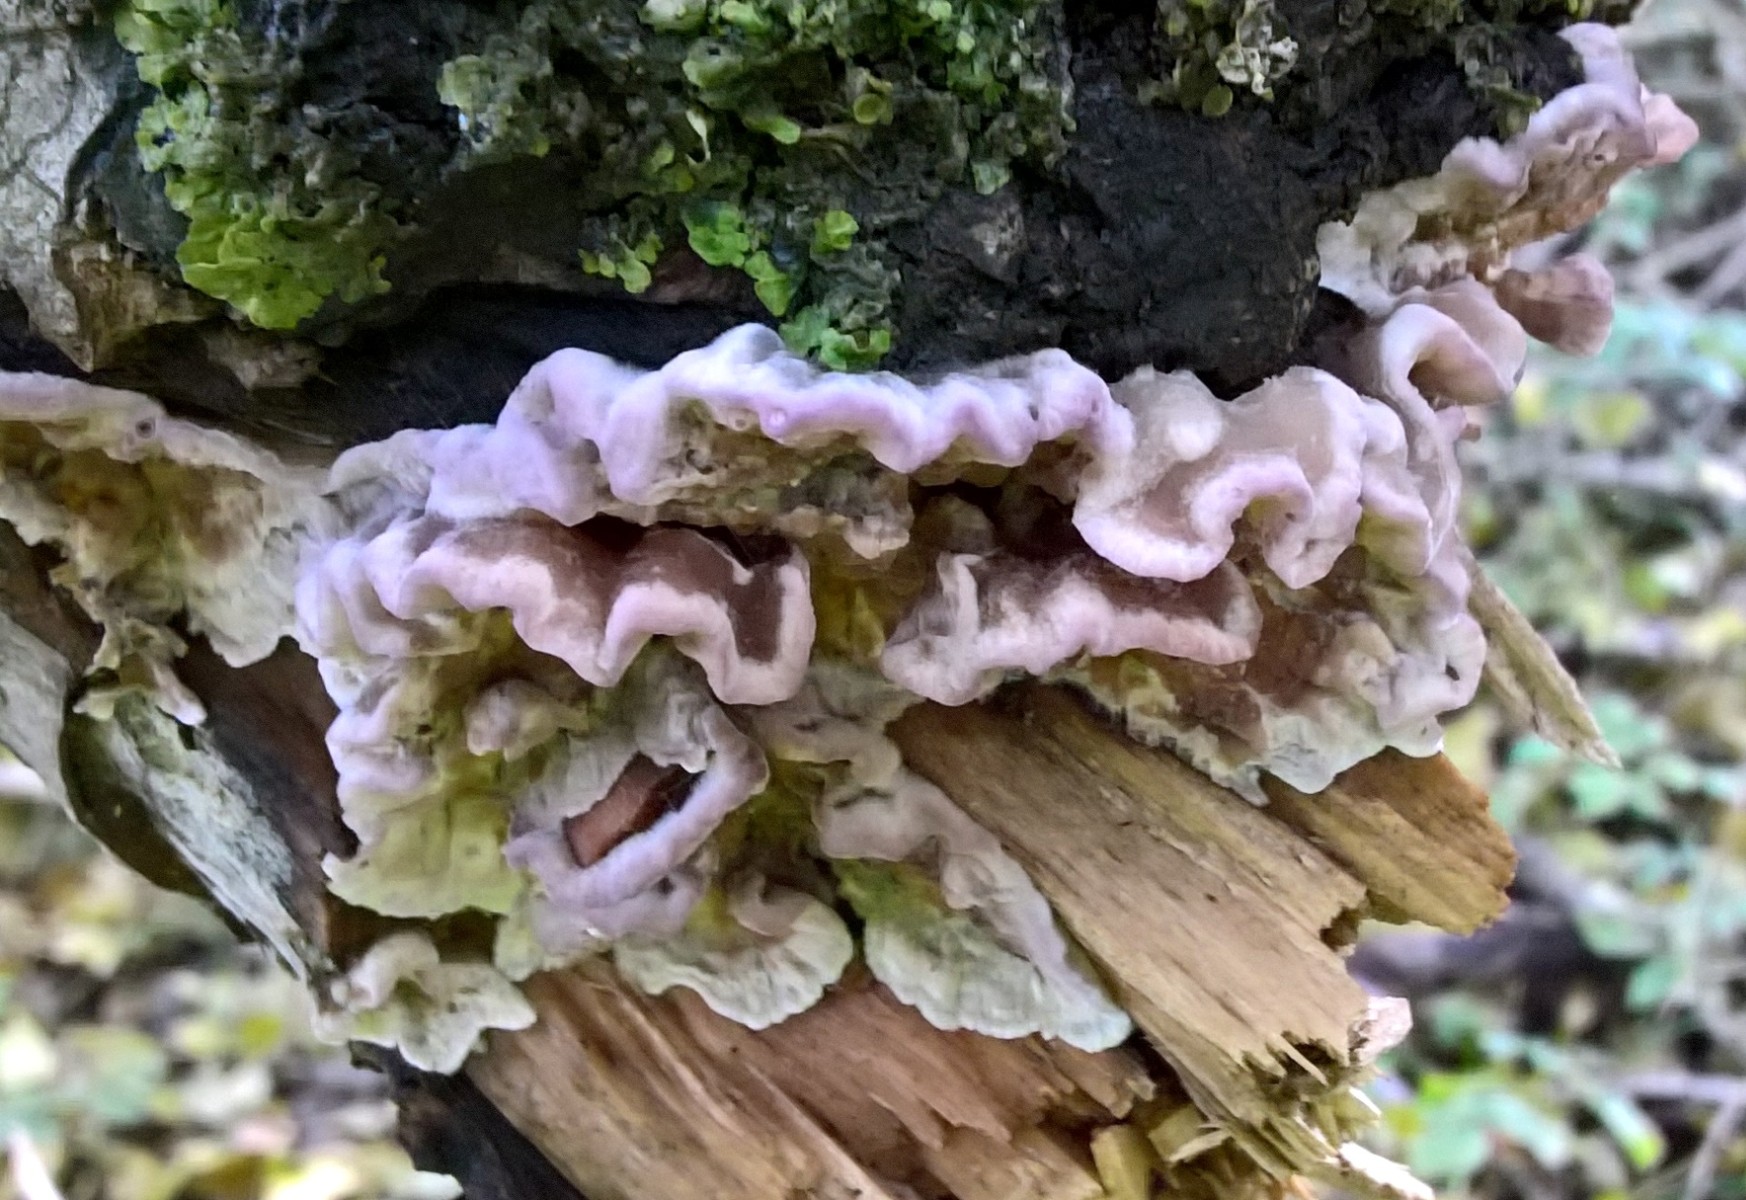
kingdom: Fungi
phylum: Basidiomycota
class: Agaricomycetes
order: Agaricales
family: Cyphellaceae
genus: Chondrostereum
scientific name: Chondrostereum purpureum
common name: purpurlædersvamp
